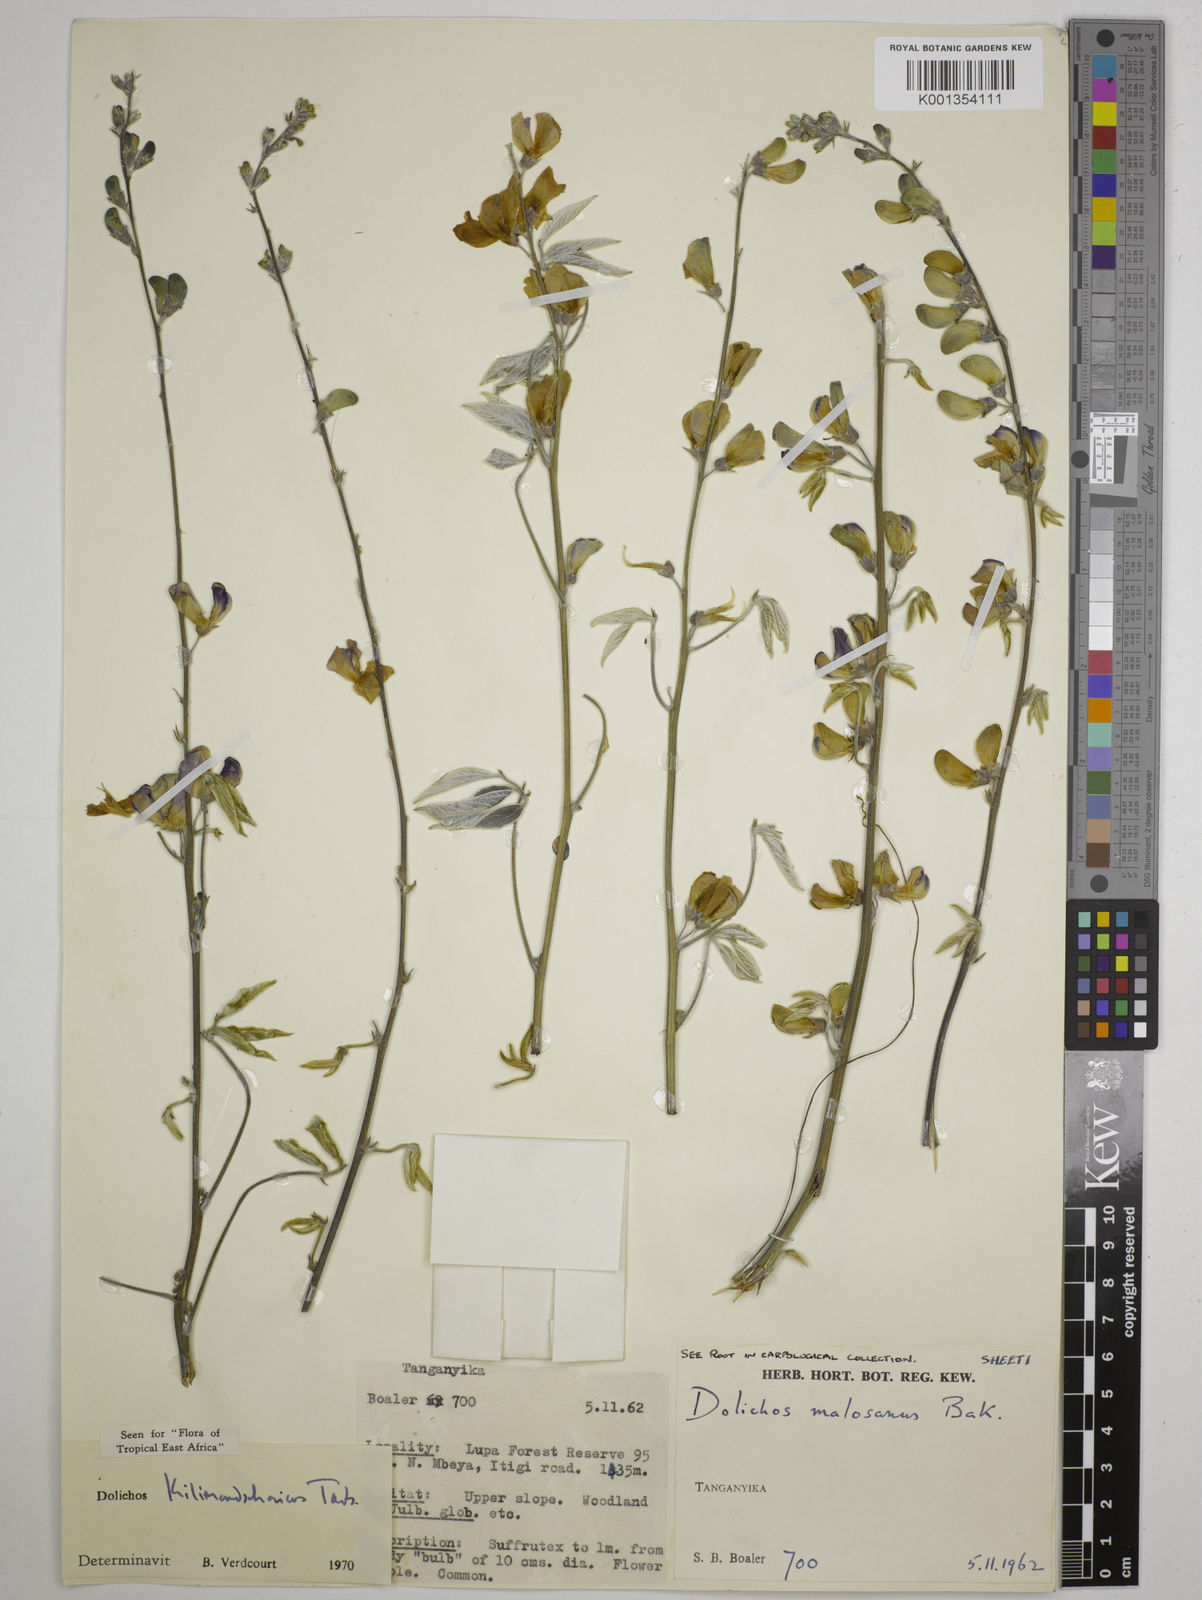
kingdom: Plantae
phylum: Tracheophyta
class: Magnoliopsida
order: Fabales
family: Fabaceae
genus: Dolichos
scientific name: Dolichos kilimandscharicus
